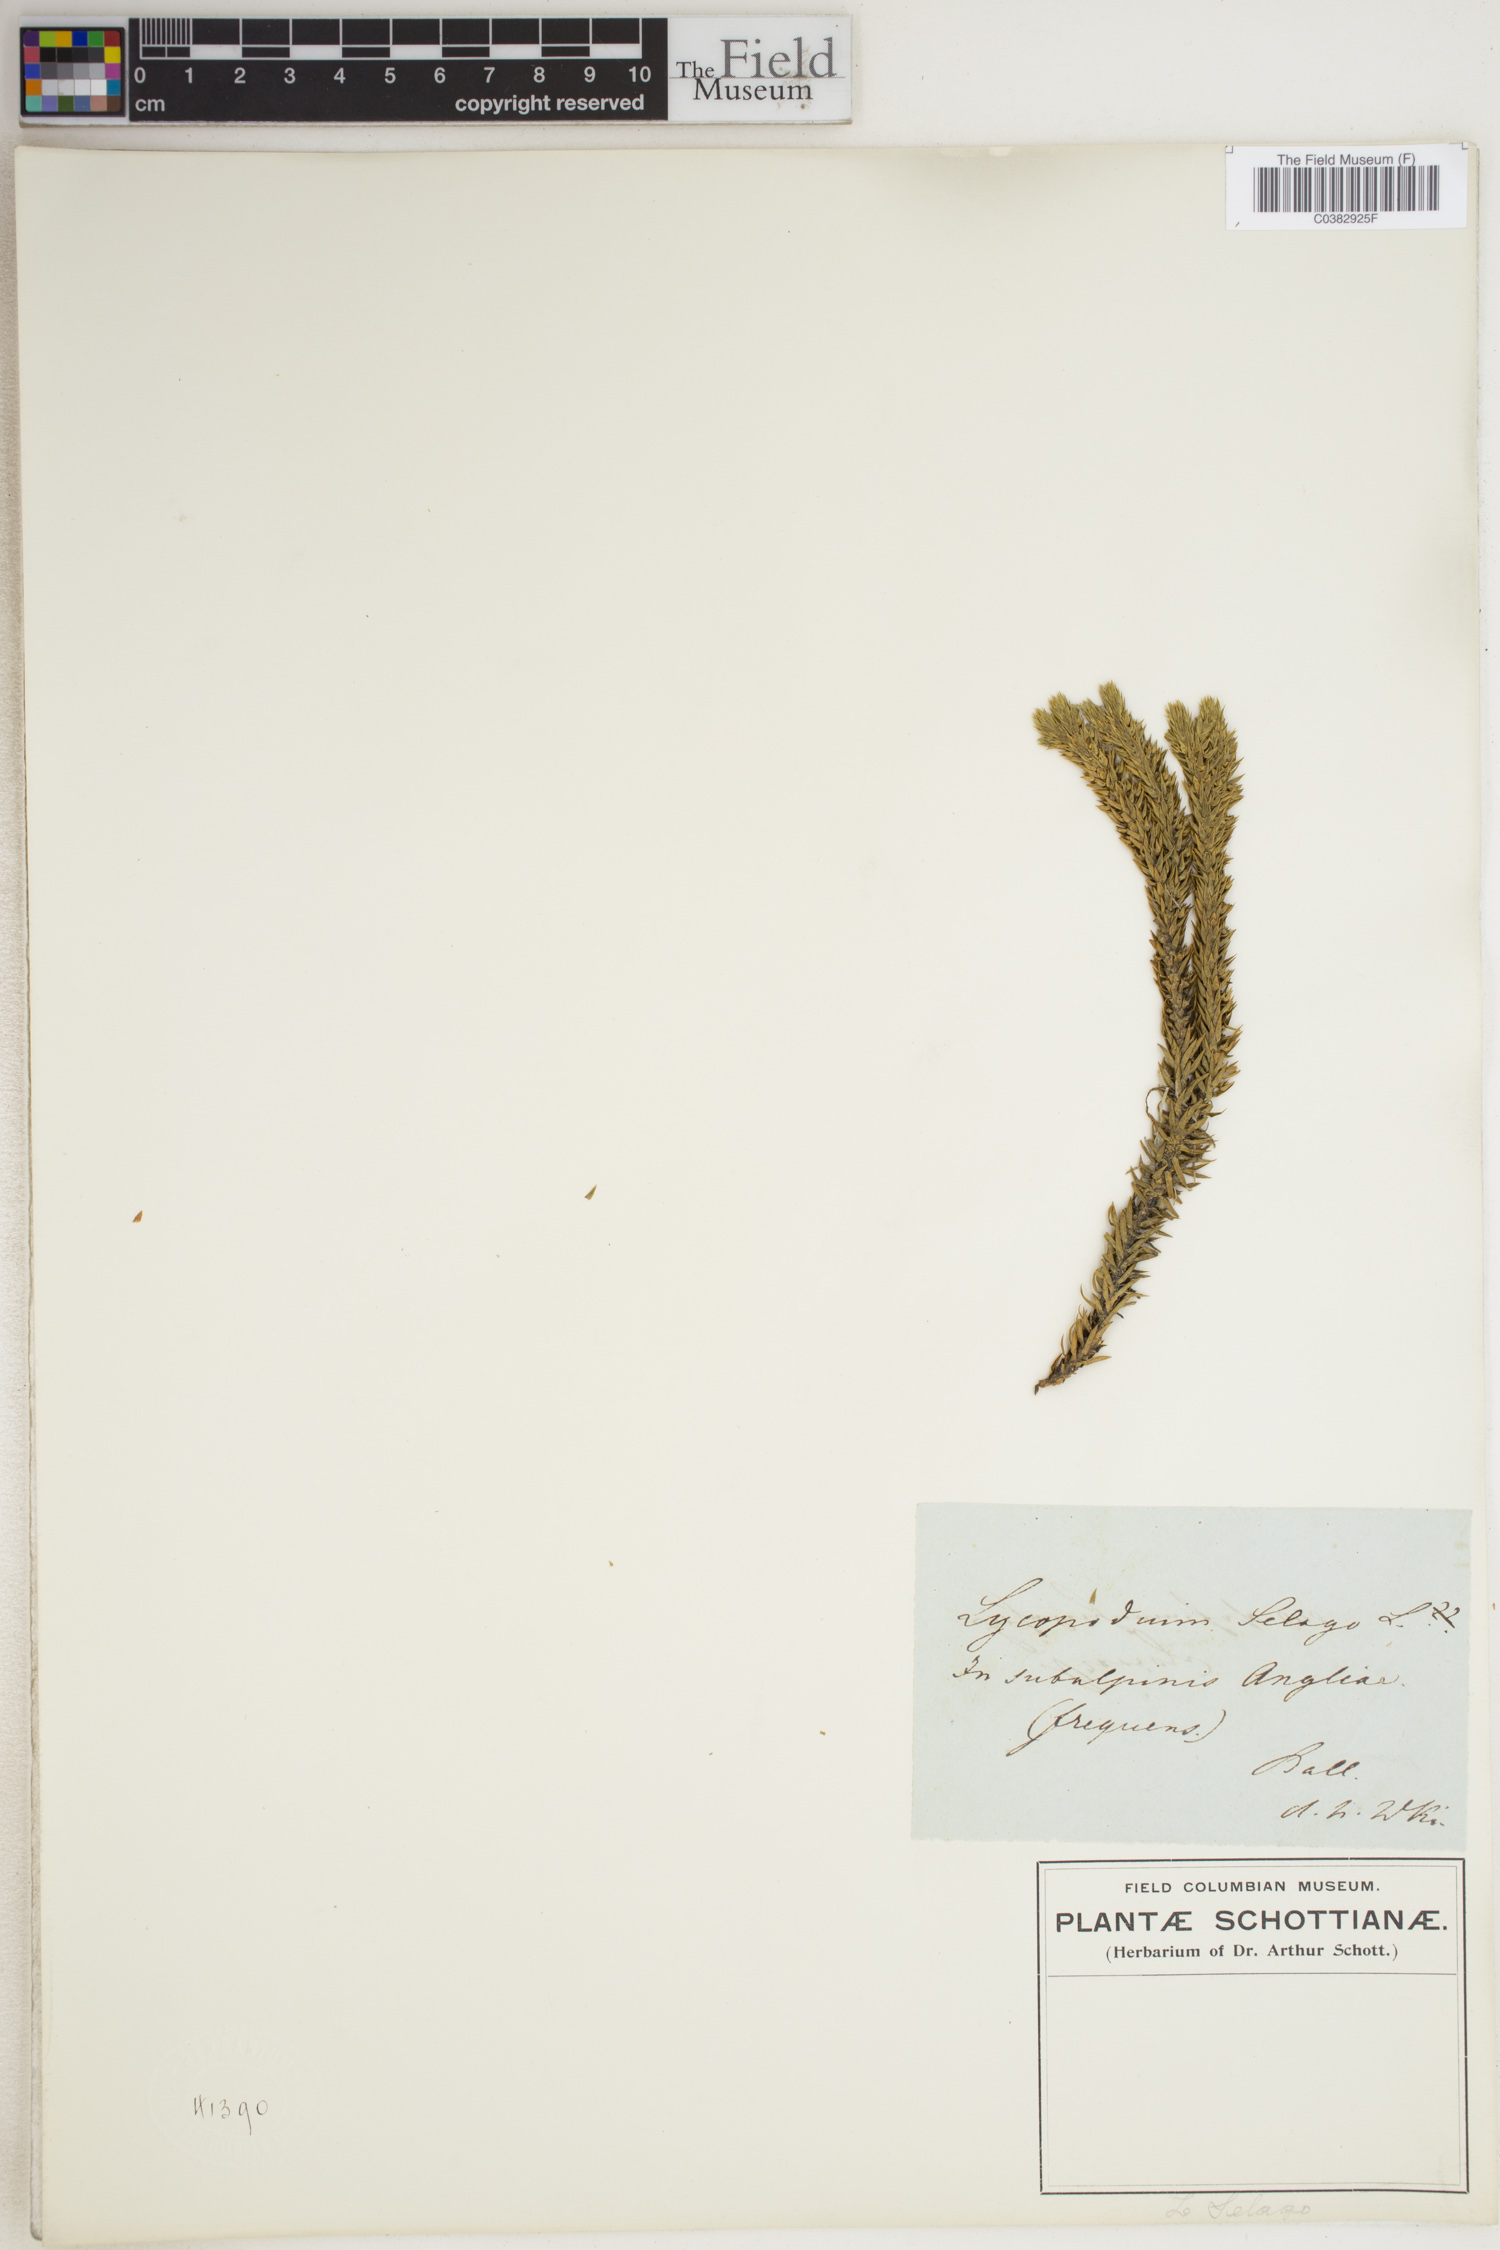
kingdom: Plantae
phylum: Tracheophyta
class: Lycopodiopsida
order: Lycopodiales
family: Lycopodiaceae
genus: Huperzia
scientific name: Huperzia selago
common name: Northern firmoss
